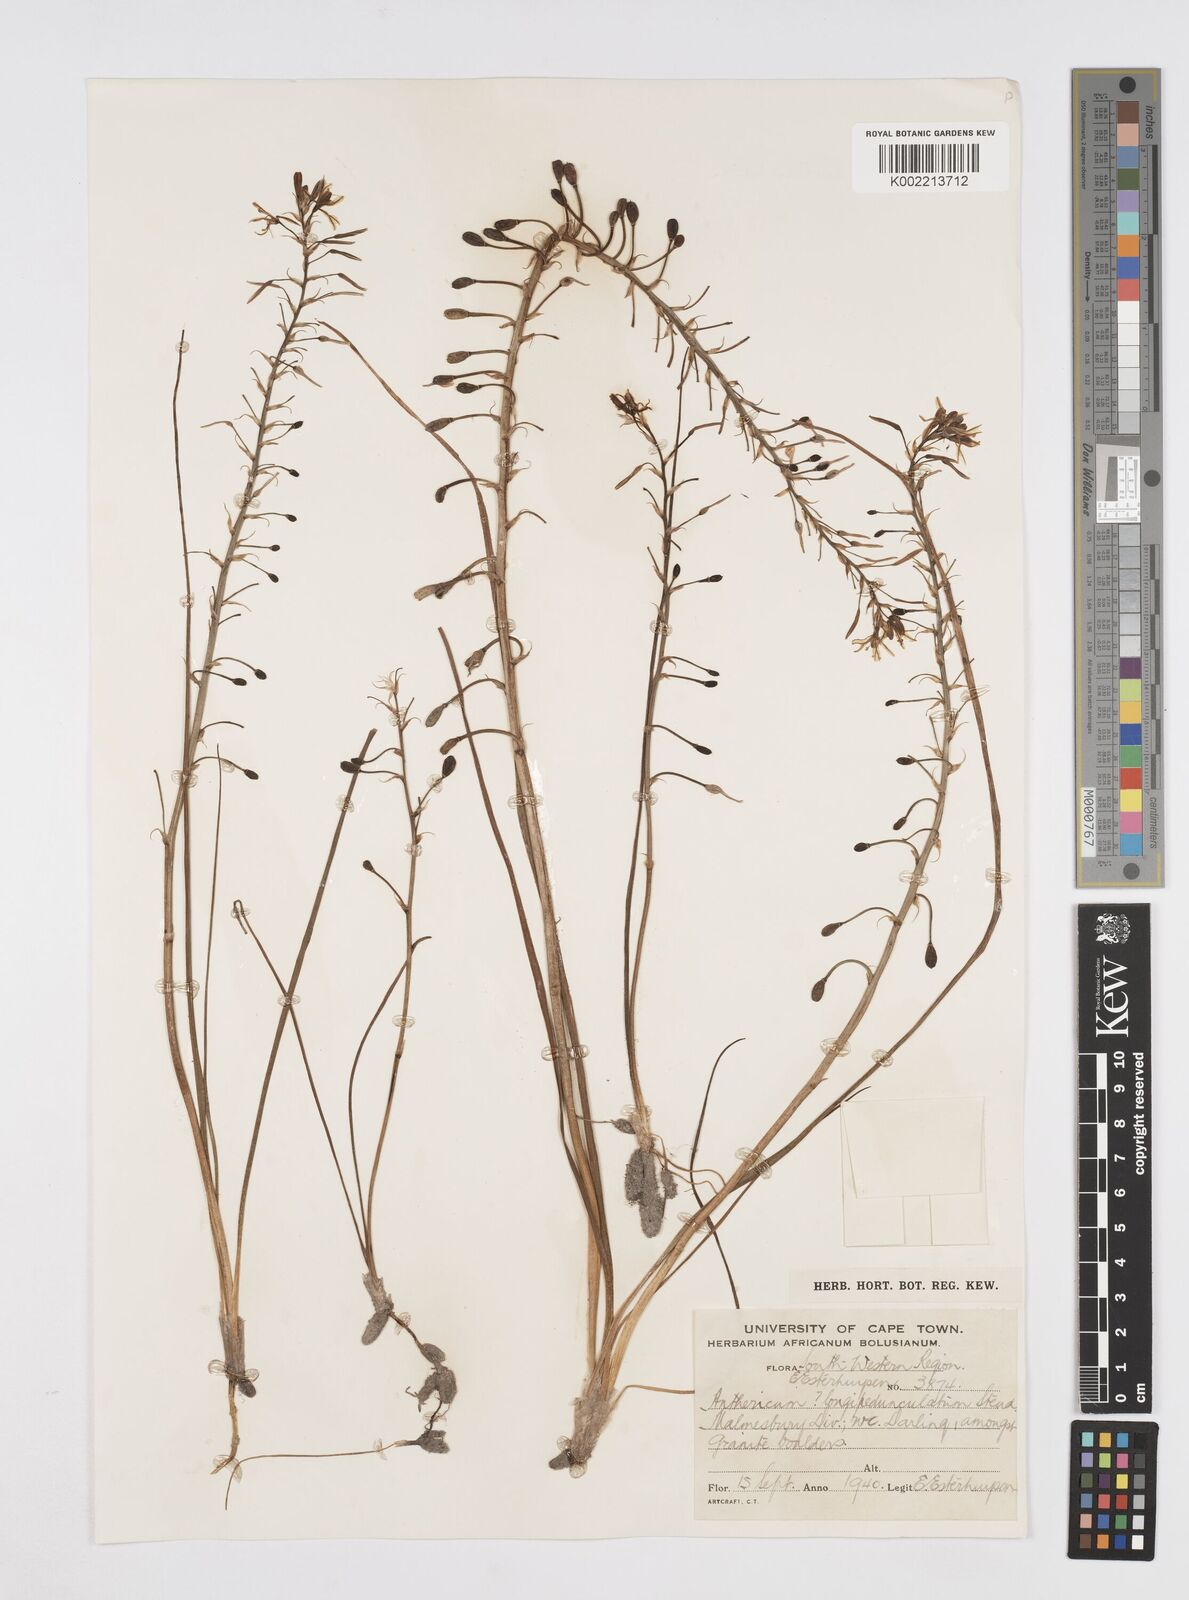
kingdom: Plantae
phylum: Tracheophyta
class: Liliopsida
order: Asparagales
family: Asphodelaceae
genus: Trachyandra
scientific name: Trachyandra filiformis
